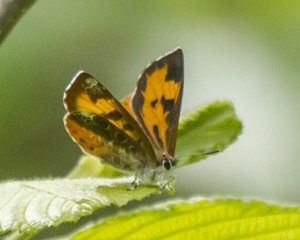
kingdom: Animalia
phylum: Arthropoda
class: Insecta
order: Lepidoptera
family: Lycaenidae
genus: Feniseca
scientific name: Feniseca tarquinius
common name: Harvester
